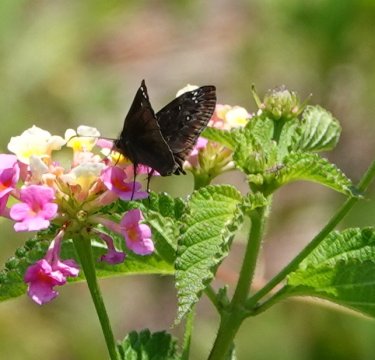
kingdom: Animalia
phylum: Arthropoda
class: Insecta
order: Lepidoptera
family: Hesperiidae
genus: Gesta
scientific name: Gesta
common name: Horace's Duskywing
